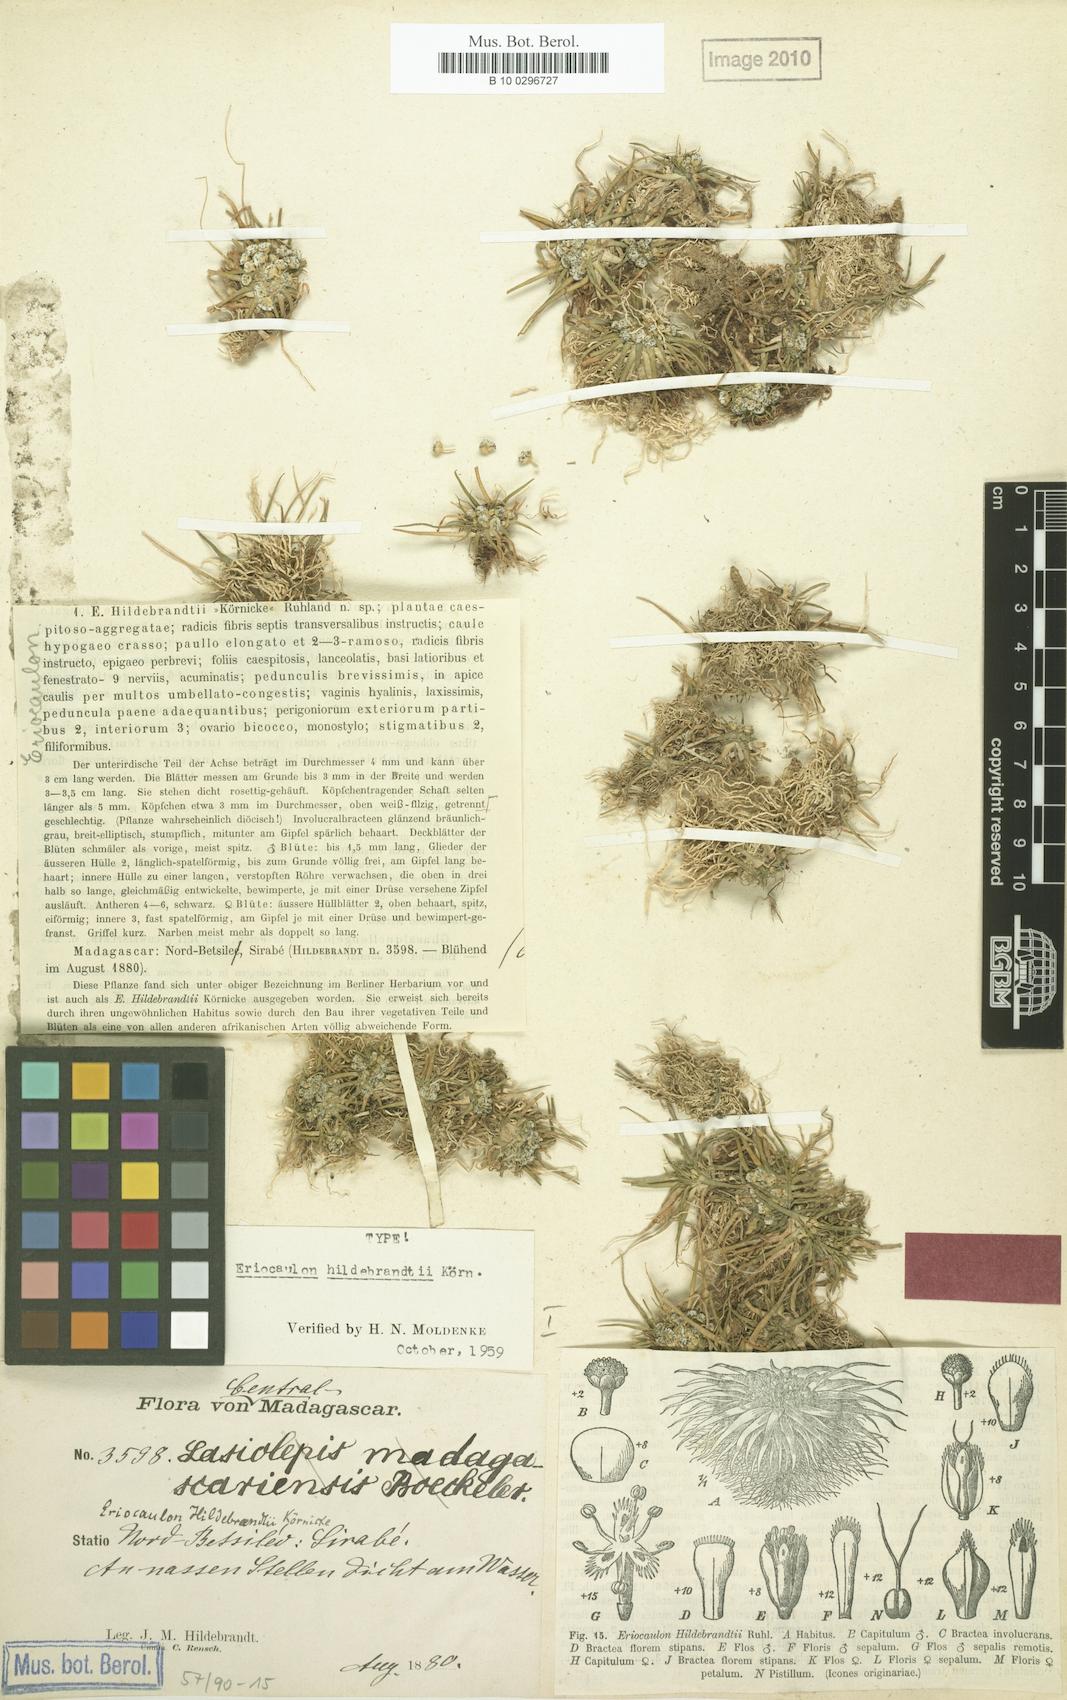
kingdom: Plantae
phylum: Tracheophyta
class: Liliopsida
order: Poales
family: Eriocaulaceae
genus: Eriocaulon
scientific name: Eriocaulon hildebrandtii
